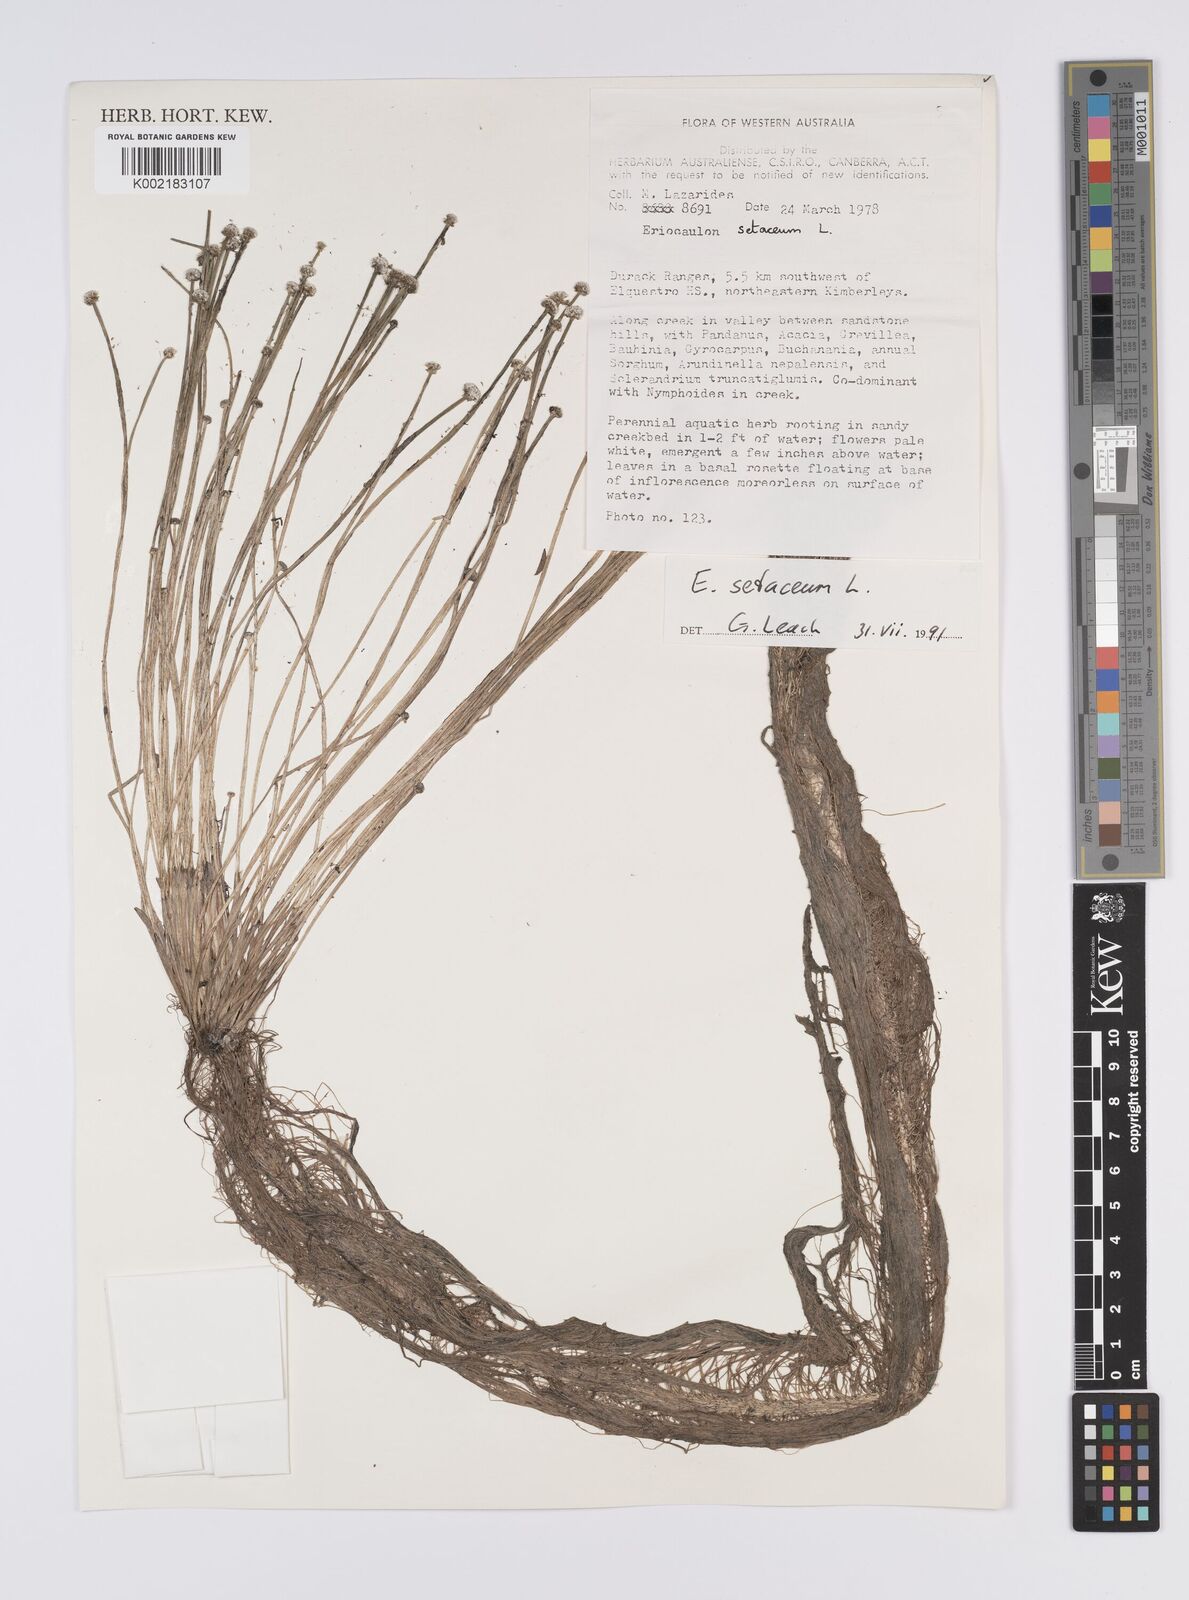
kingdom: Plantae
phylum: Tracheophyta
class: Liliopsida
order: Poales
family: Eriocaulaceae
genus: Eriocaulon
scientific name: Eriocaulon setaceum
